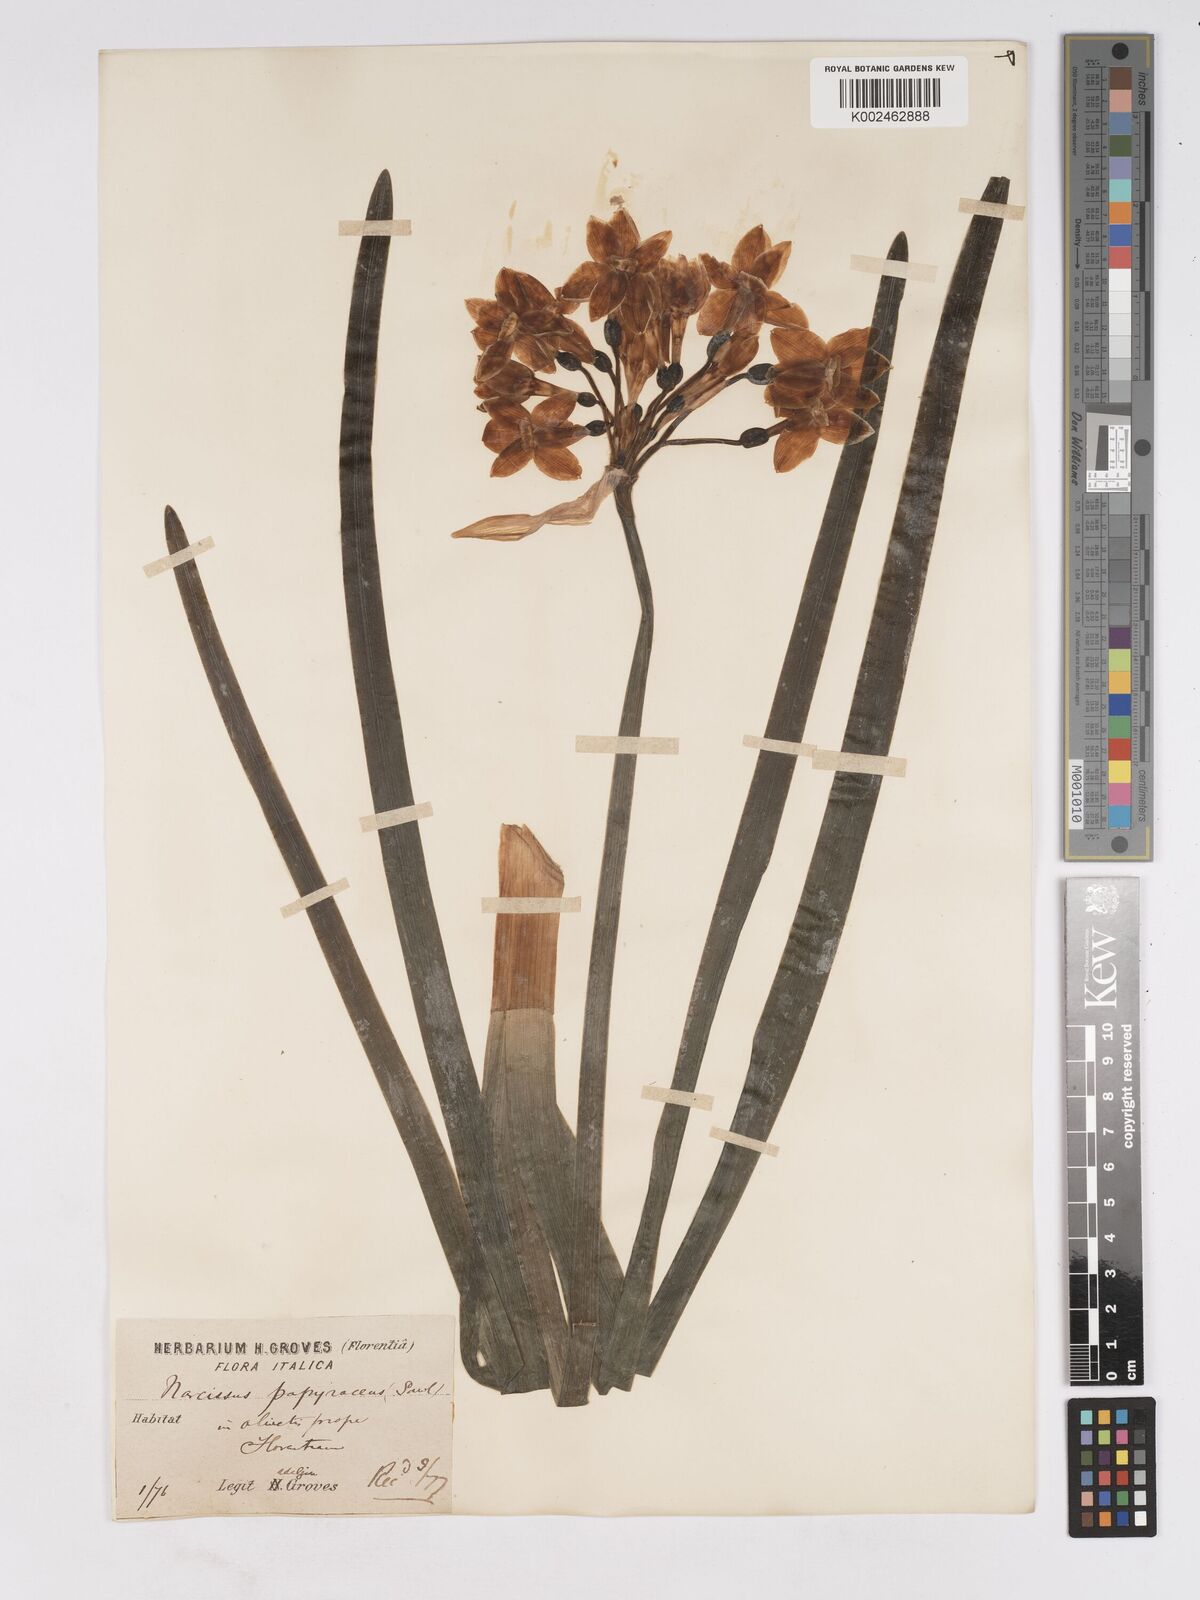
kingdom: Plantae
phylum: Tracheophyta
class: Liliopsida
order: Asparagales
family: Amaryllidaceae
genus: Narcissus
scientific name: Narcissus
